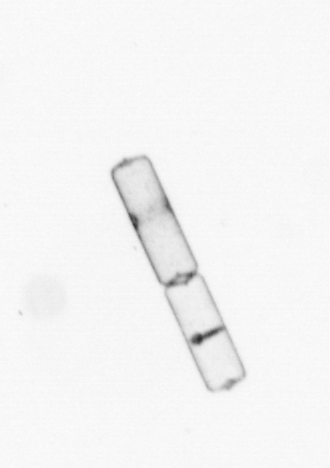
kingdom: Chromista
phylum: Ochrophyta
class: Bacillariophyceae
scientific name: Bacillariophyceae
